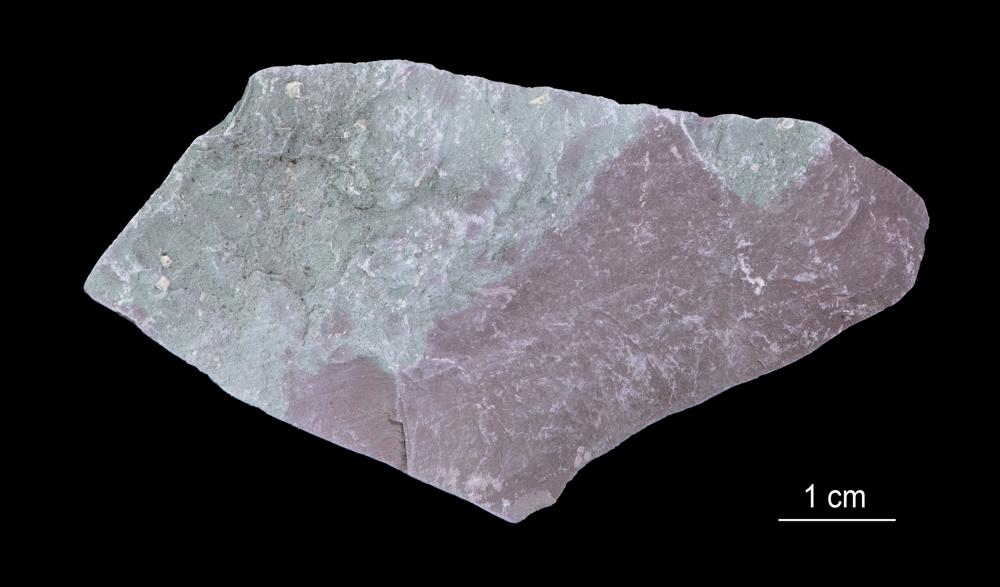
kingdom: Chromista
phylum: Foraminifera
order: Astrorhizida
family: Hyperamminidae
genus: Platysolenites
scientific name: Platysolenites
